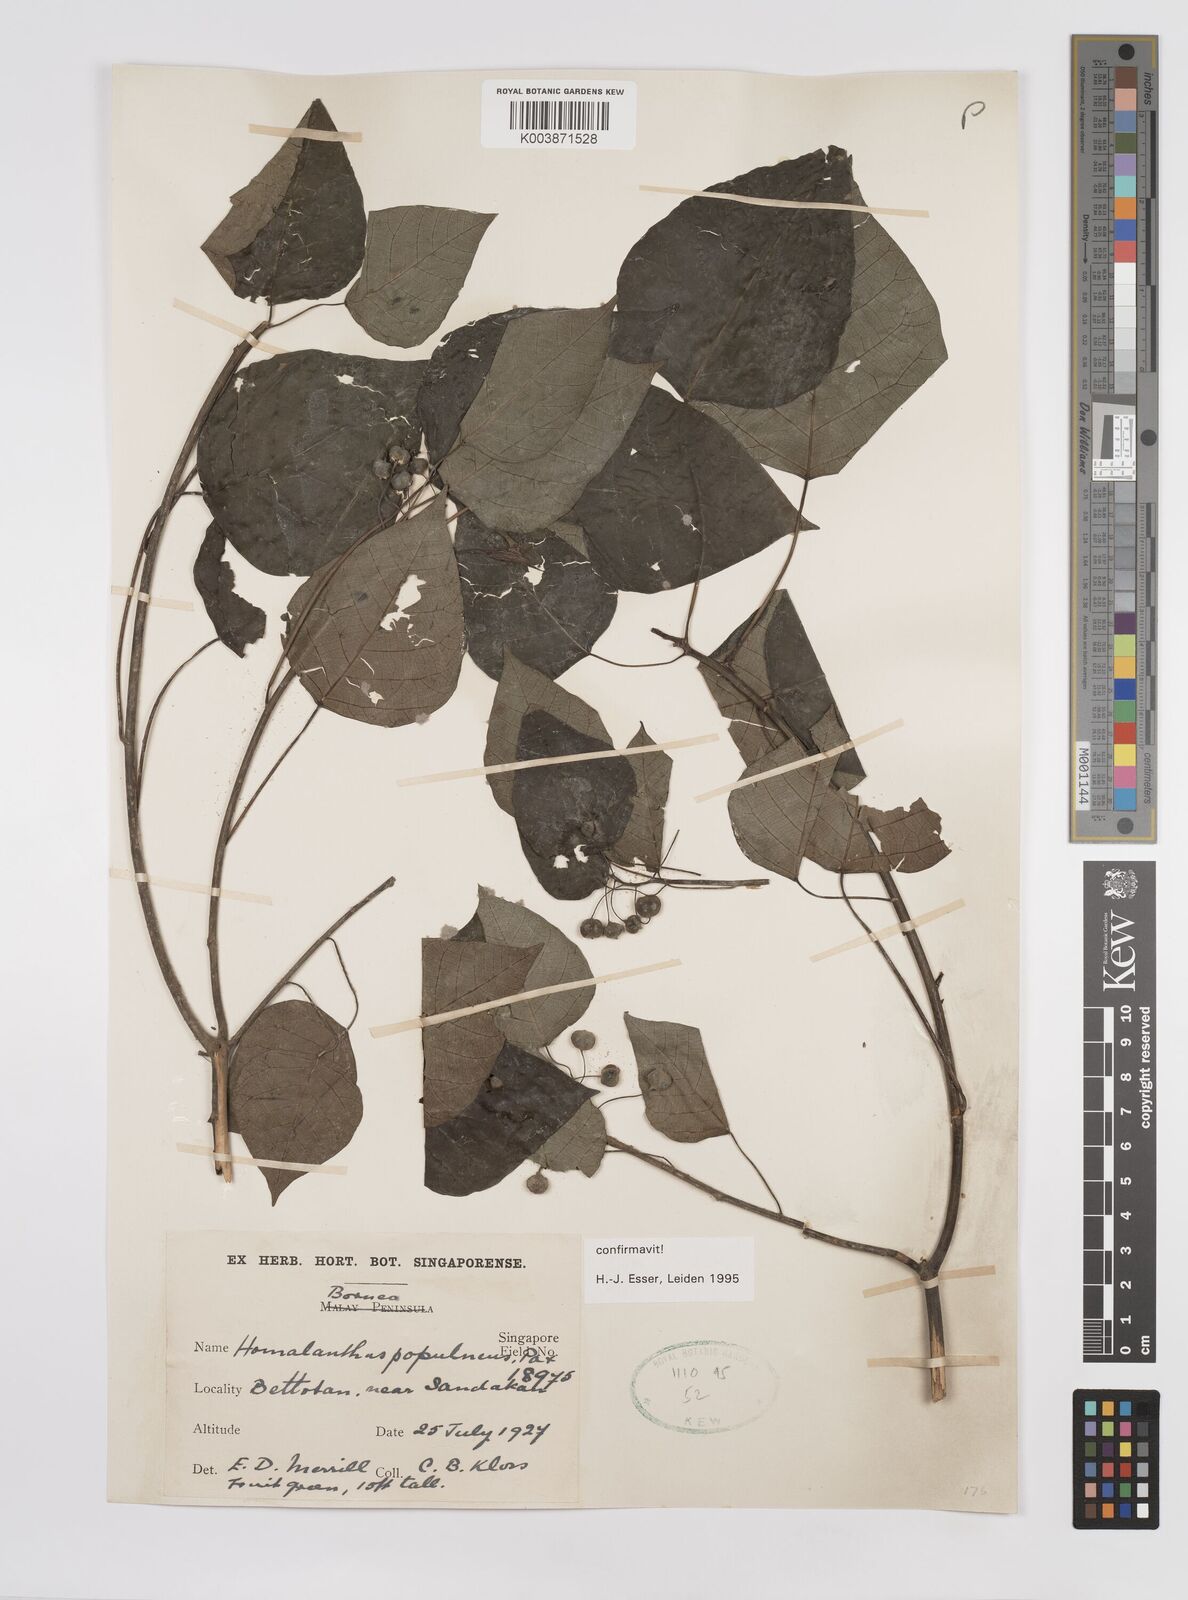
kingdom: Plantae
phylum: Tracheophyta
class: Magnoliopsida
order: Malpighiales
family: Euphorbiaceae
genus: Homalanthus
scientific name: Homalanthus populneus
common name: Spurge
